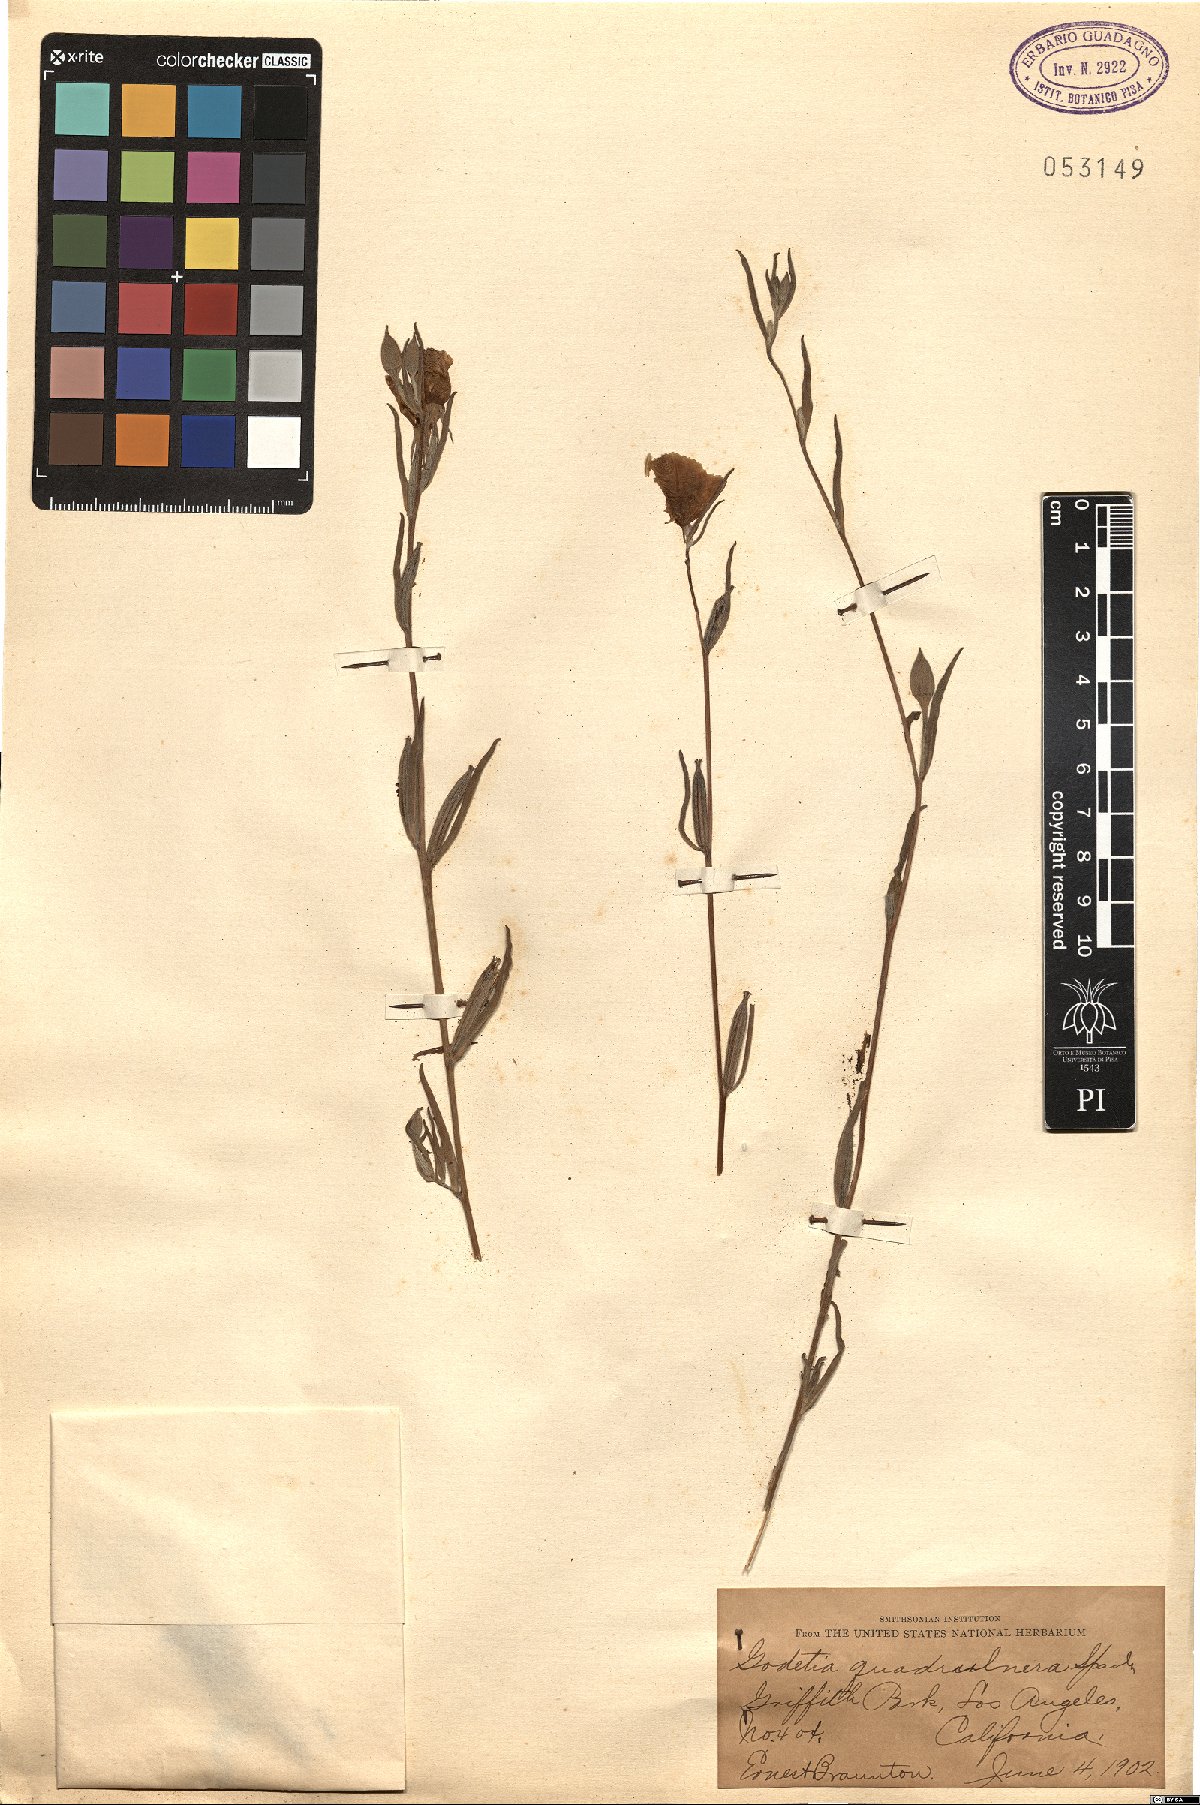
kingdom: Plantae
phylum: Tracheophyta
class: Magnoliopsida
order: Myrtales
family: Onagraceae
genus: Clarkia
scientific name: Clarkia purpurea
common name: Purple clarkia
